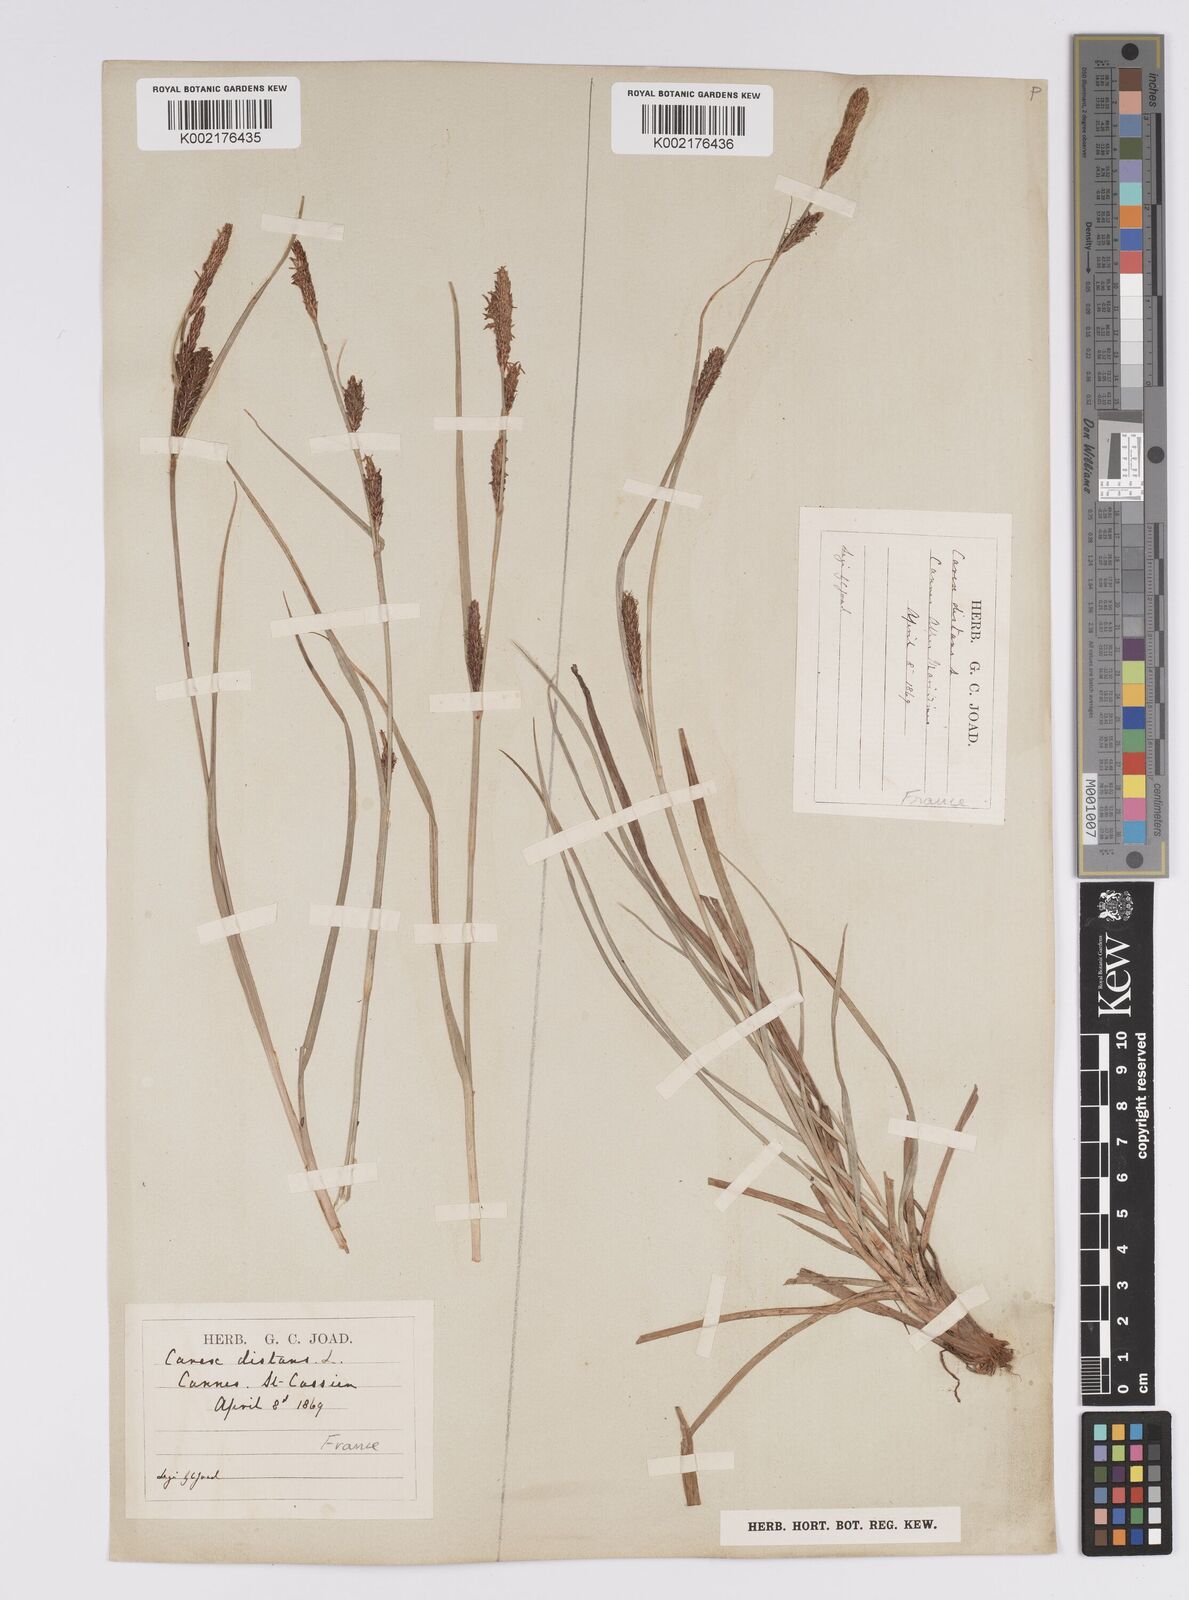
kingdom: Plantae
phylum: Tracheophyta
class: Liliopsida
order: Poales
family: Cyperaceae
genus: Carex
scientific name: Carex distans
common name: Distant sedge
